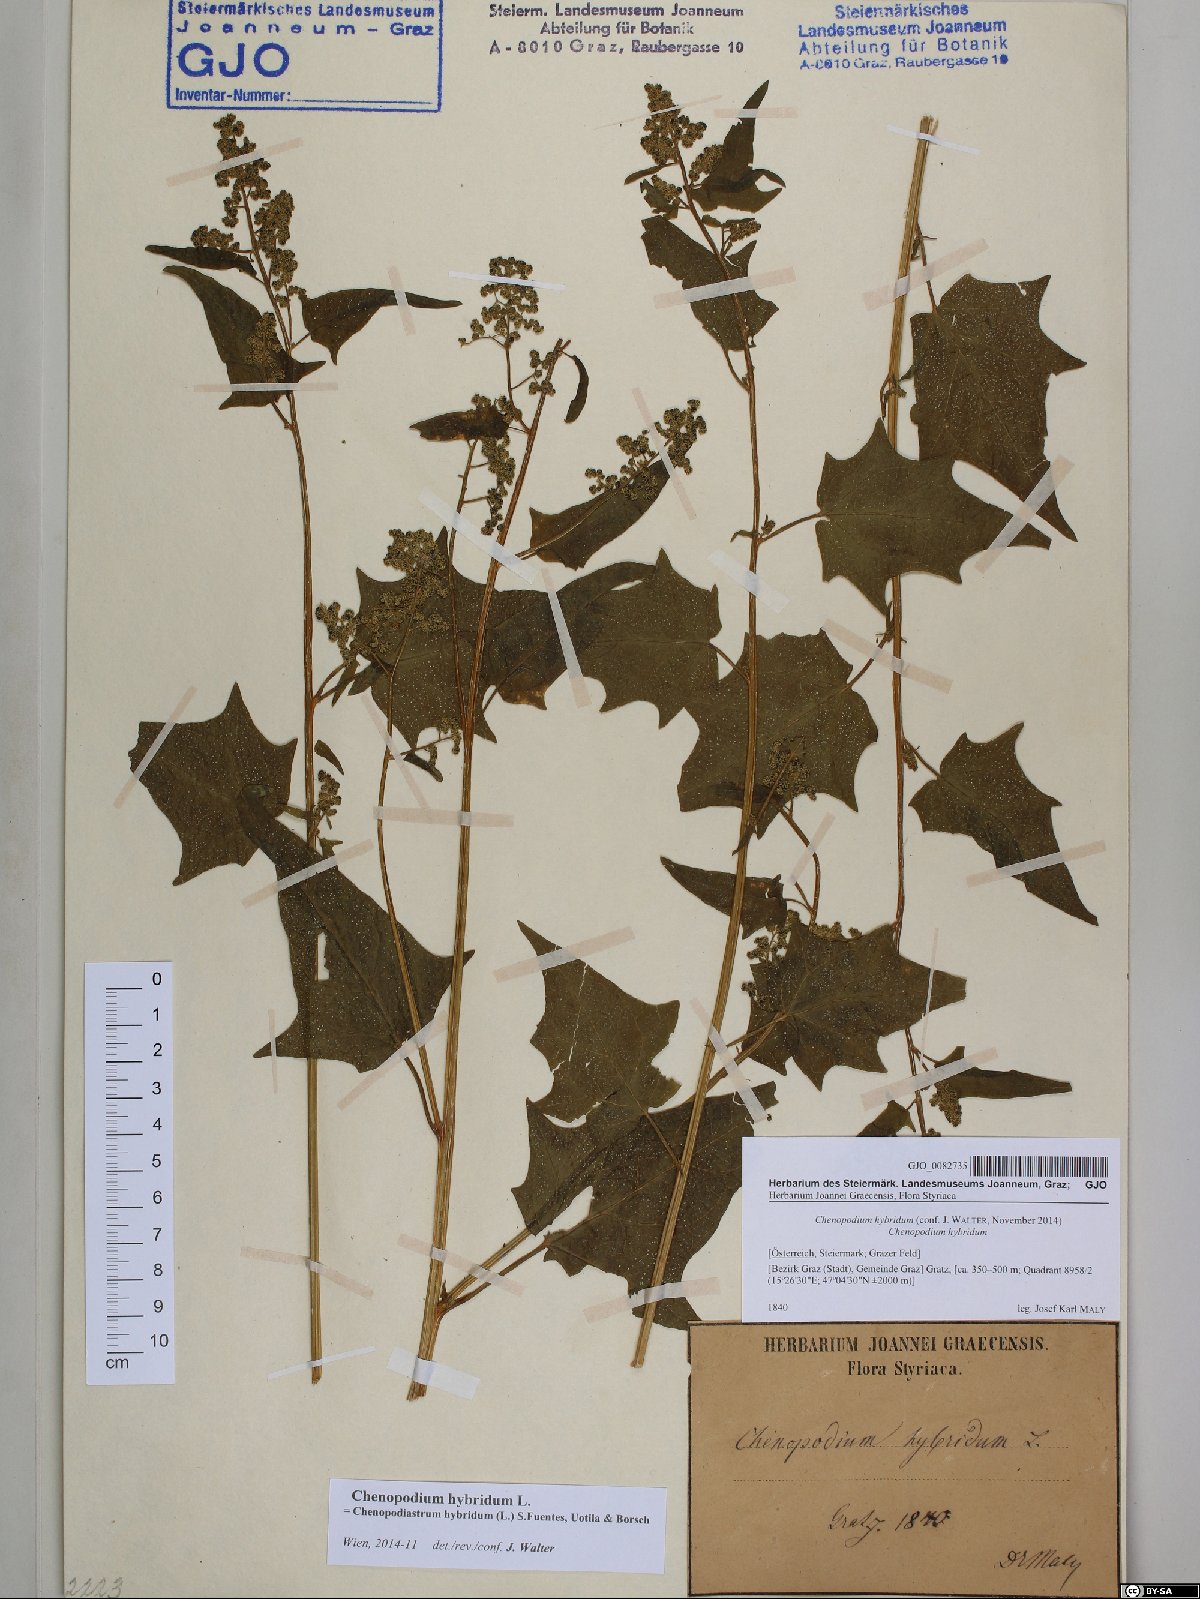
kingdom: Plantae
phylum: Tracheophyta
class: Magnoliopsida
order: Caryophyllales
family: Amaranthaceae
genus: Chenopodiastrum
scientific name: Chenopodiastrum hybridum
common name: Mapleleaf goosefoot
